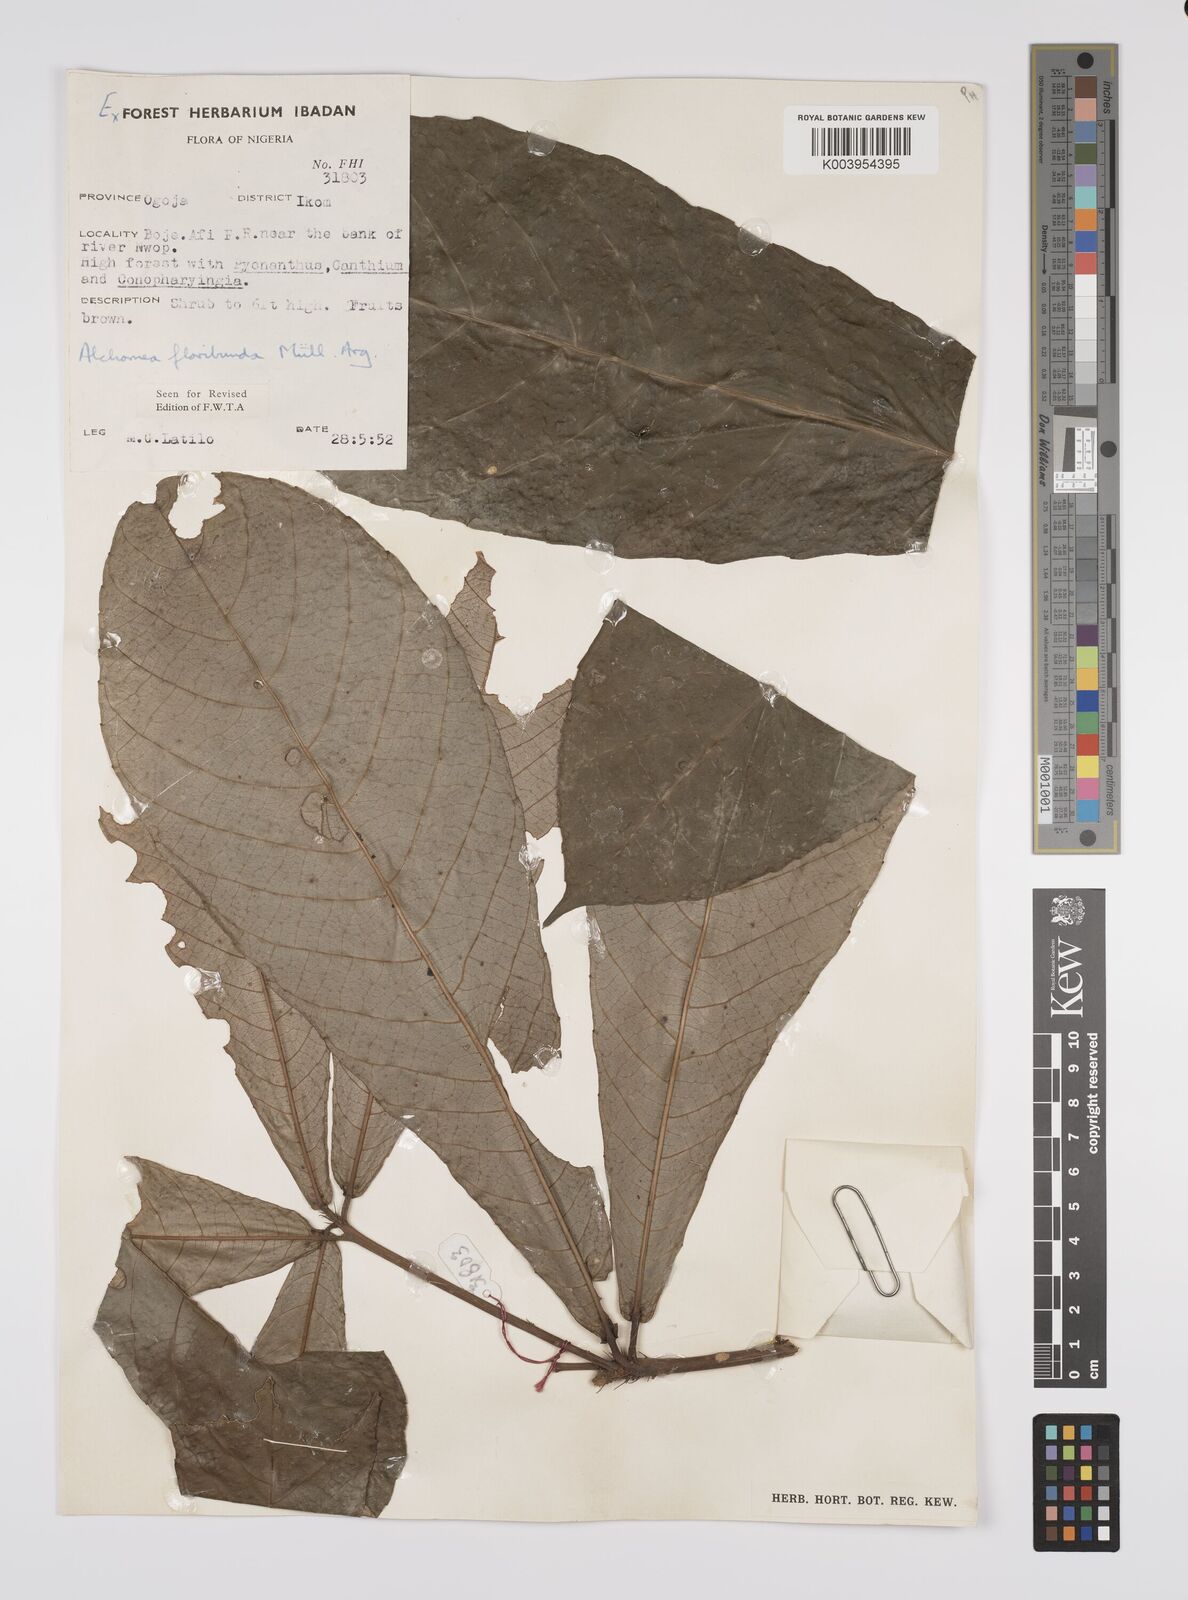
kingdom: Plantae
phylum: Tracheophyta
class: Magnoliopsida
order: Malpighiales
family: Euphorbiaceae
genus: Alchornea
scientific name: Alchornea floribunda
